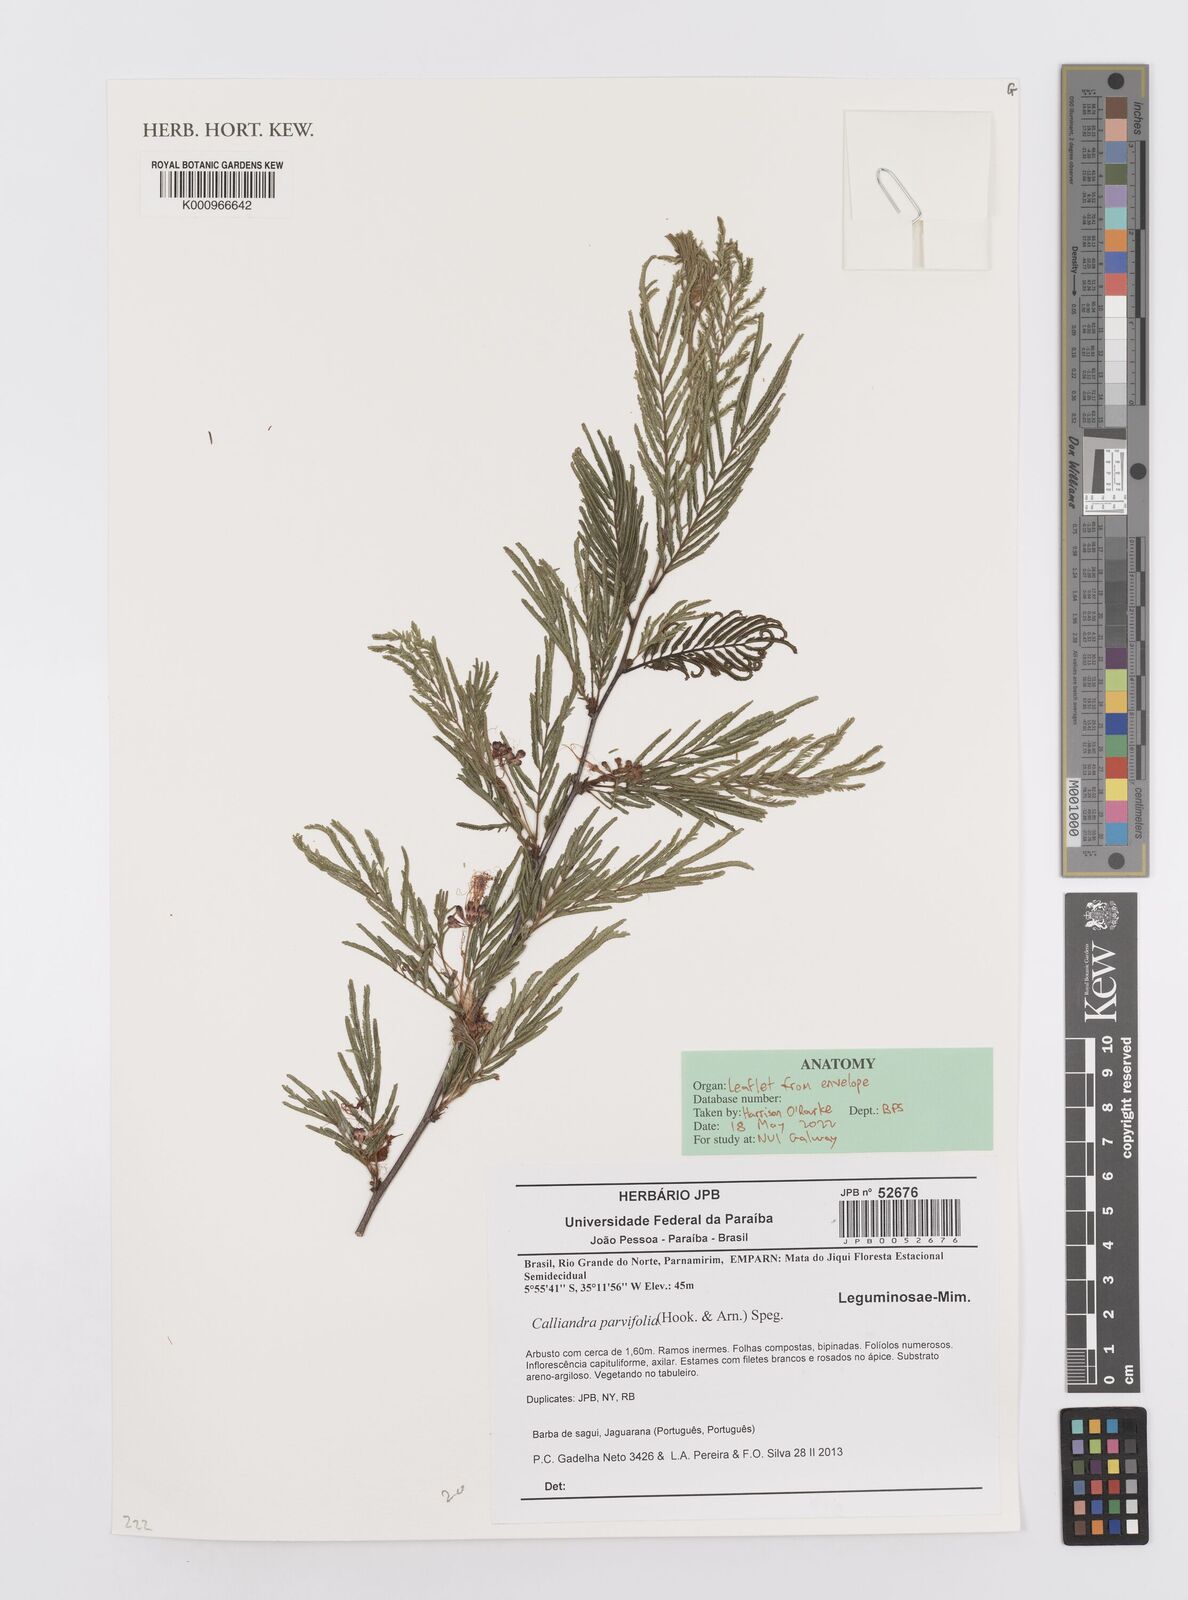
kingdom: Plantae
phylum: Tracheophyta
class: Magnoliopsida
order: Fabales
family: Fabaceae
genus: Calliandra
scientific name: Calliandra
